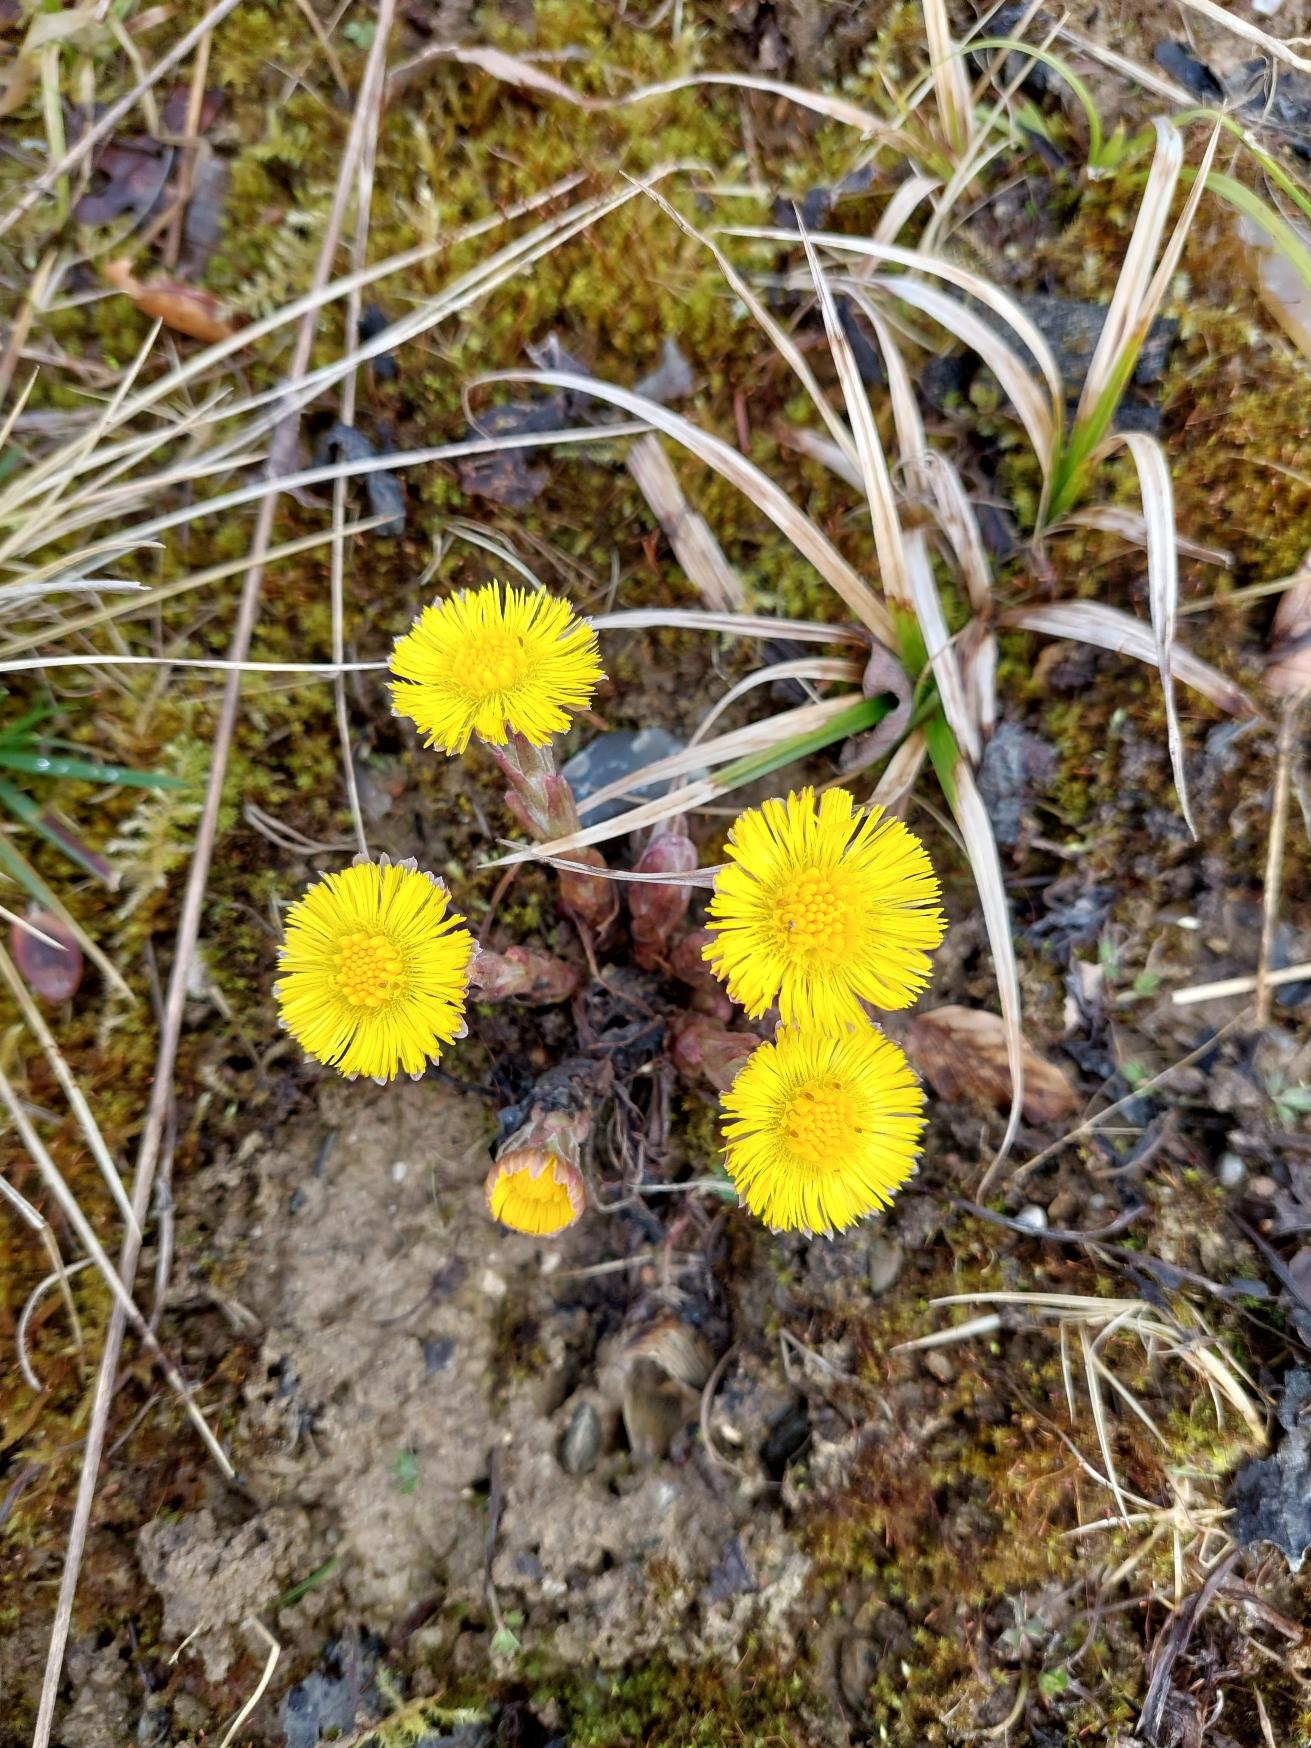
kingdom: Plantae
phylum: Tracheophyta
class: Magnoliopsida
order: Asterales
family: Asteraceae
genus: Tussilago
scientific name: Tussilago farfara
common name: Følfod
